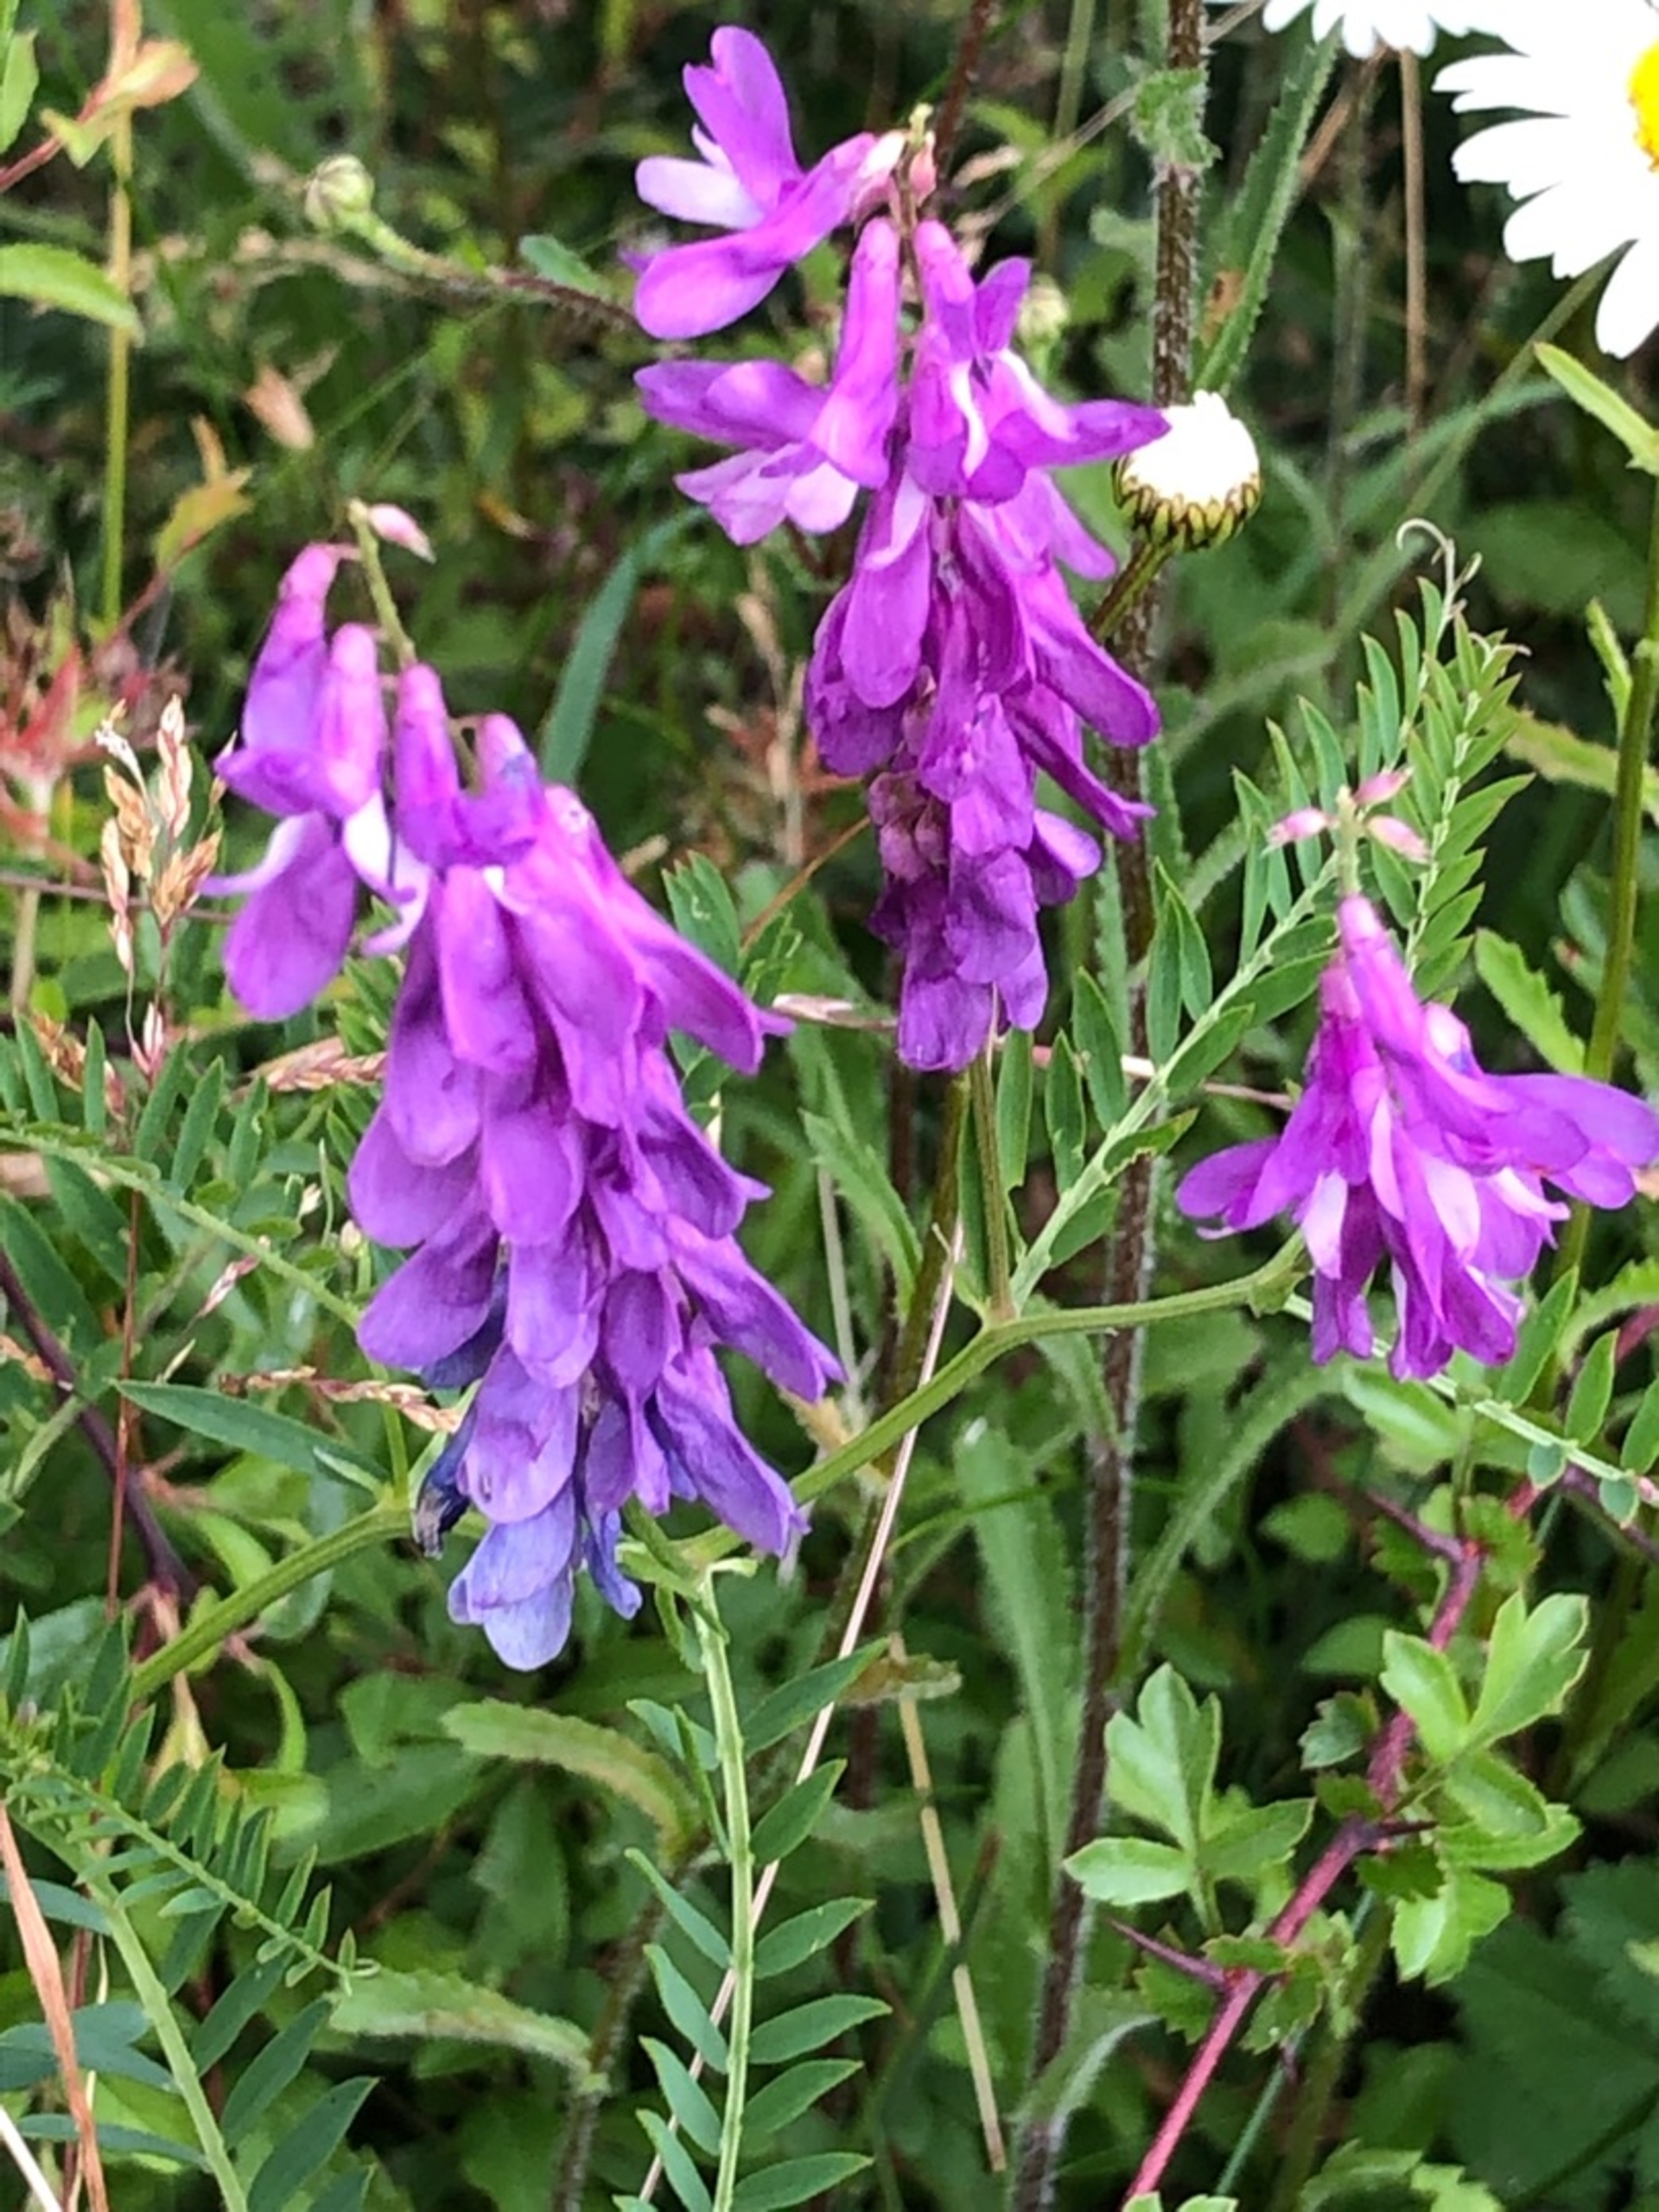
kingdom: Plantae
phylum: Tracheophyta
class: Magnoliopsida
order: Fabales
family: Fabaceae
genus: Vicia
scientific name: Vicia tenuifolia
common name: Langklaset vikke
